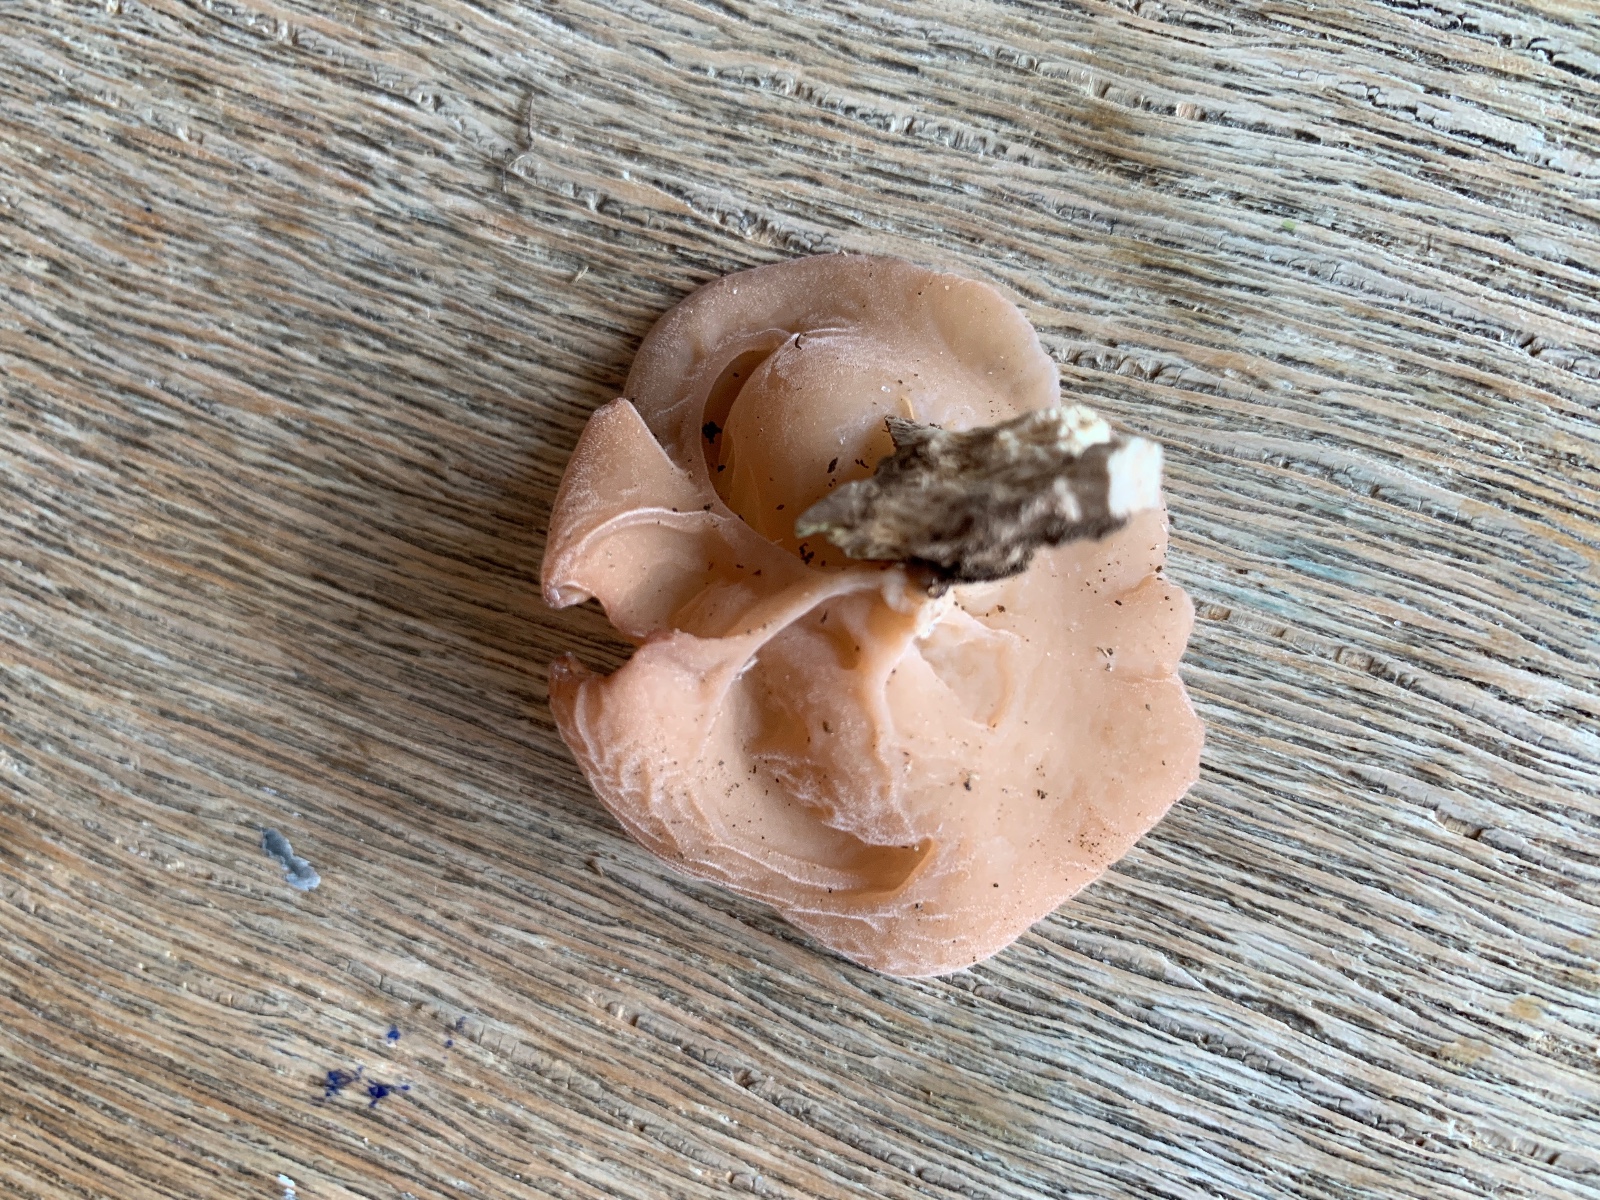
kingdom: Fungi
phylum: Basidiomycota
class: Agaricomycetes
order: Auriculariales
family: Auriculariaceae
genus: Auricularia
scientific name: Auricularia auricula-judae
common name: almindelig judasøre
